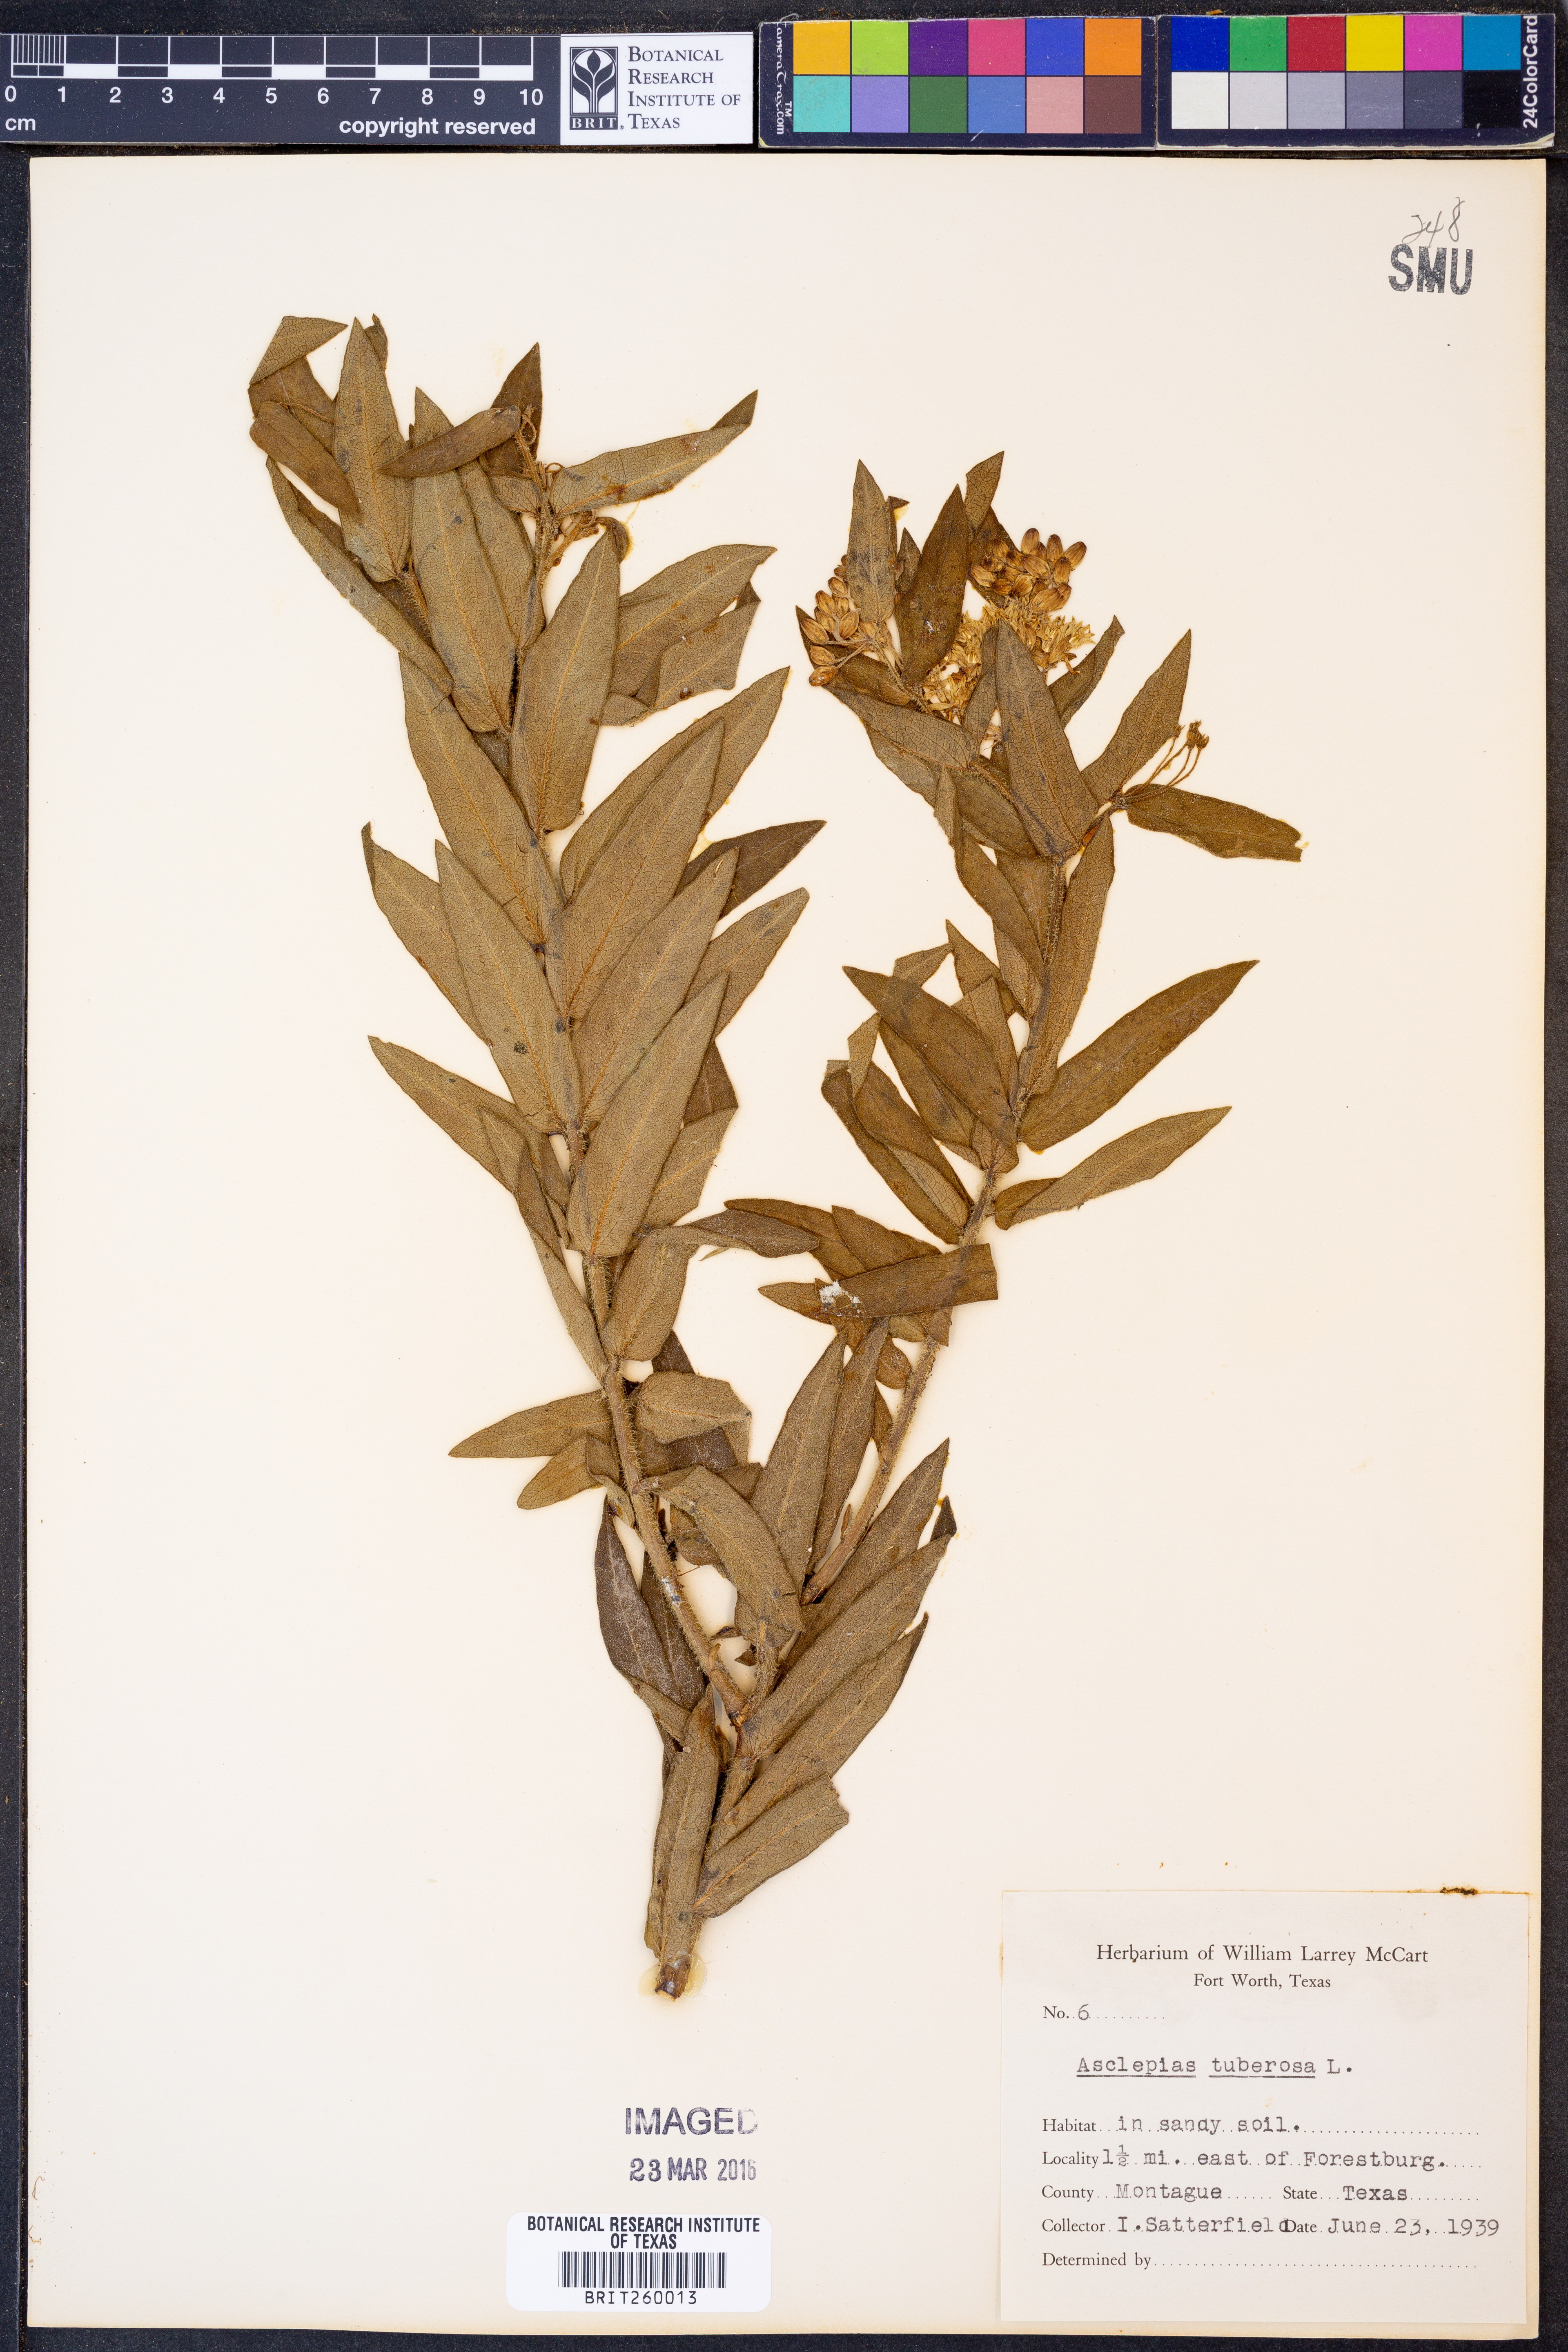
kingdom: Plantae
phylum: Tracheophyta
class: Magnoliopsida
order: Gentianales
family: Apocynaceae
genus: Asclepias
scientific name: Asclepias tuberosa
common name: Butterfly milkweed
